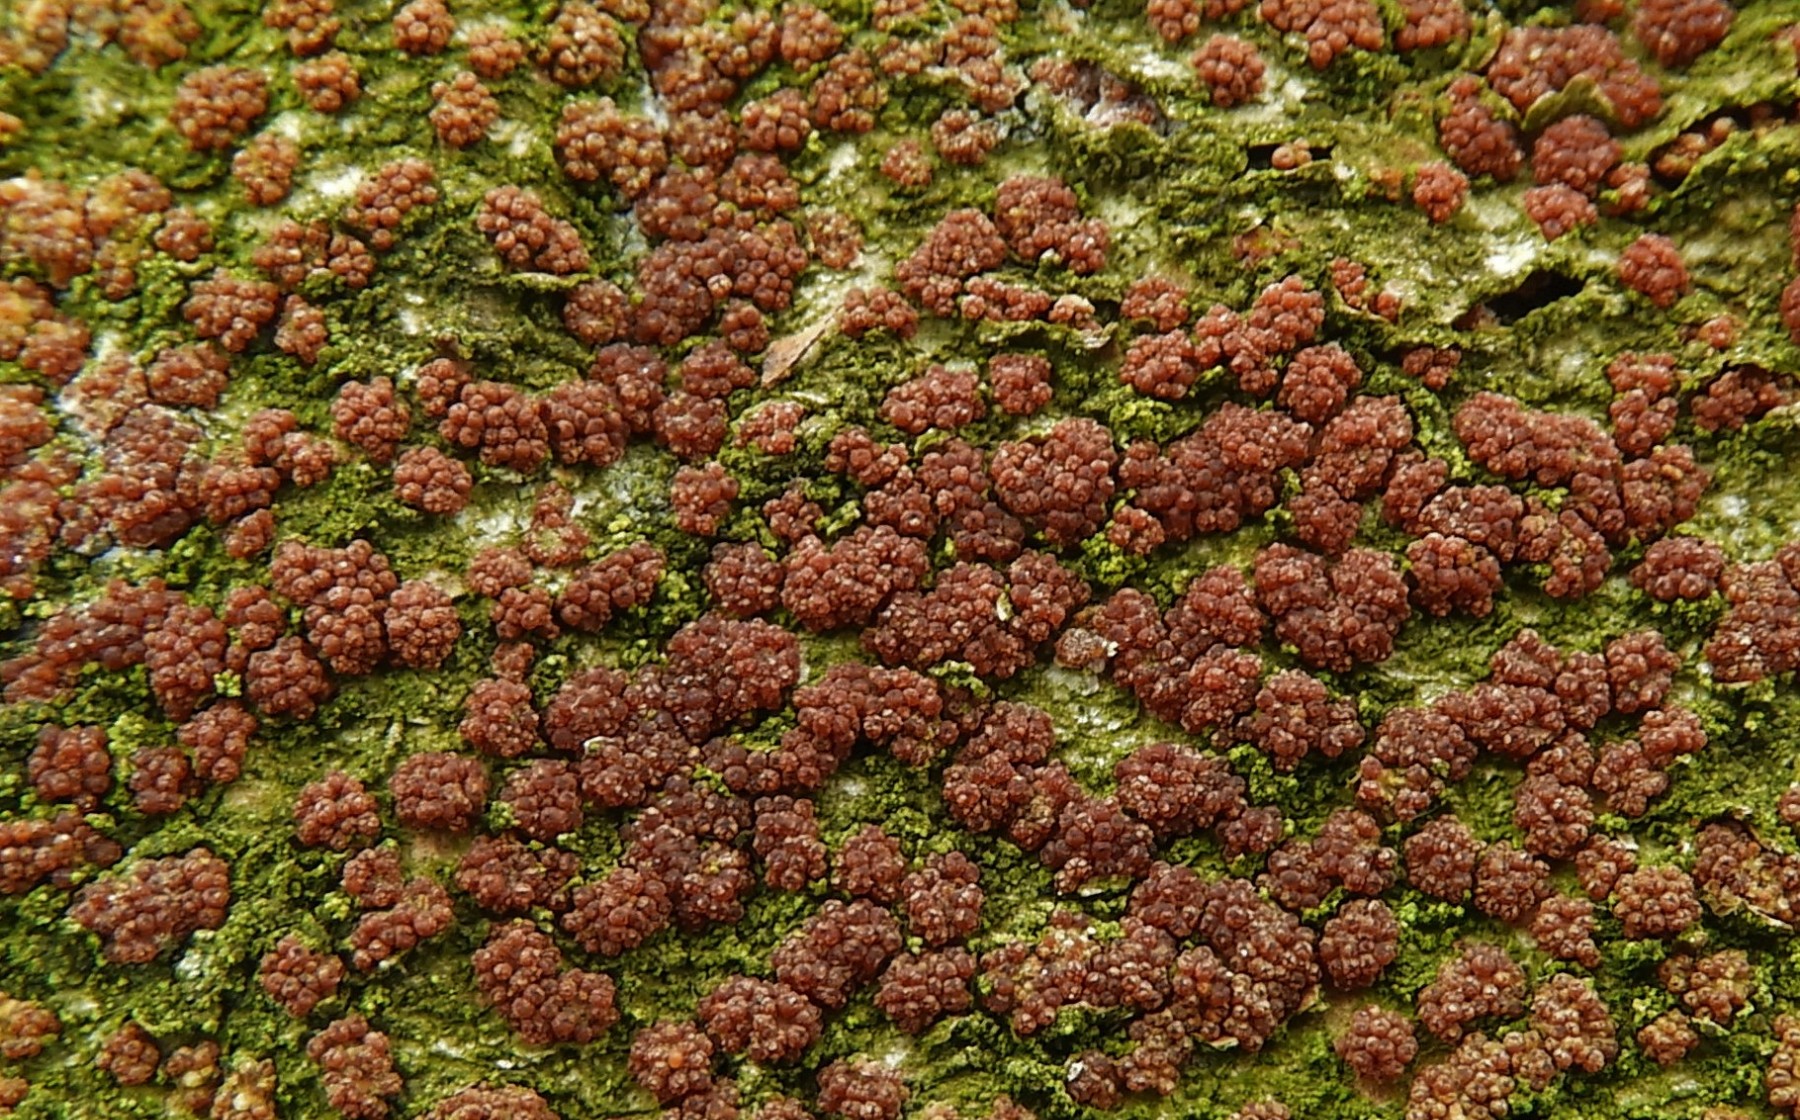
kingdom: Fungi
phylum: Ascomycota
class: Sordariomycetes
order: Hypocreales
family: Nectriaceae
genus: Neonectria
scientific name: Neonectria coccinea
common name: bøgebark-cinnobersvamp
